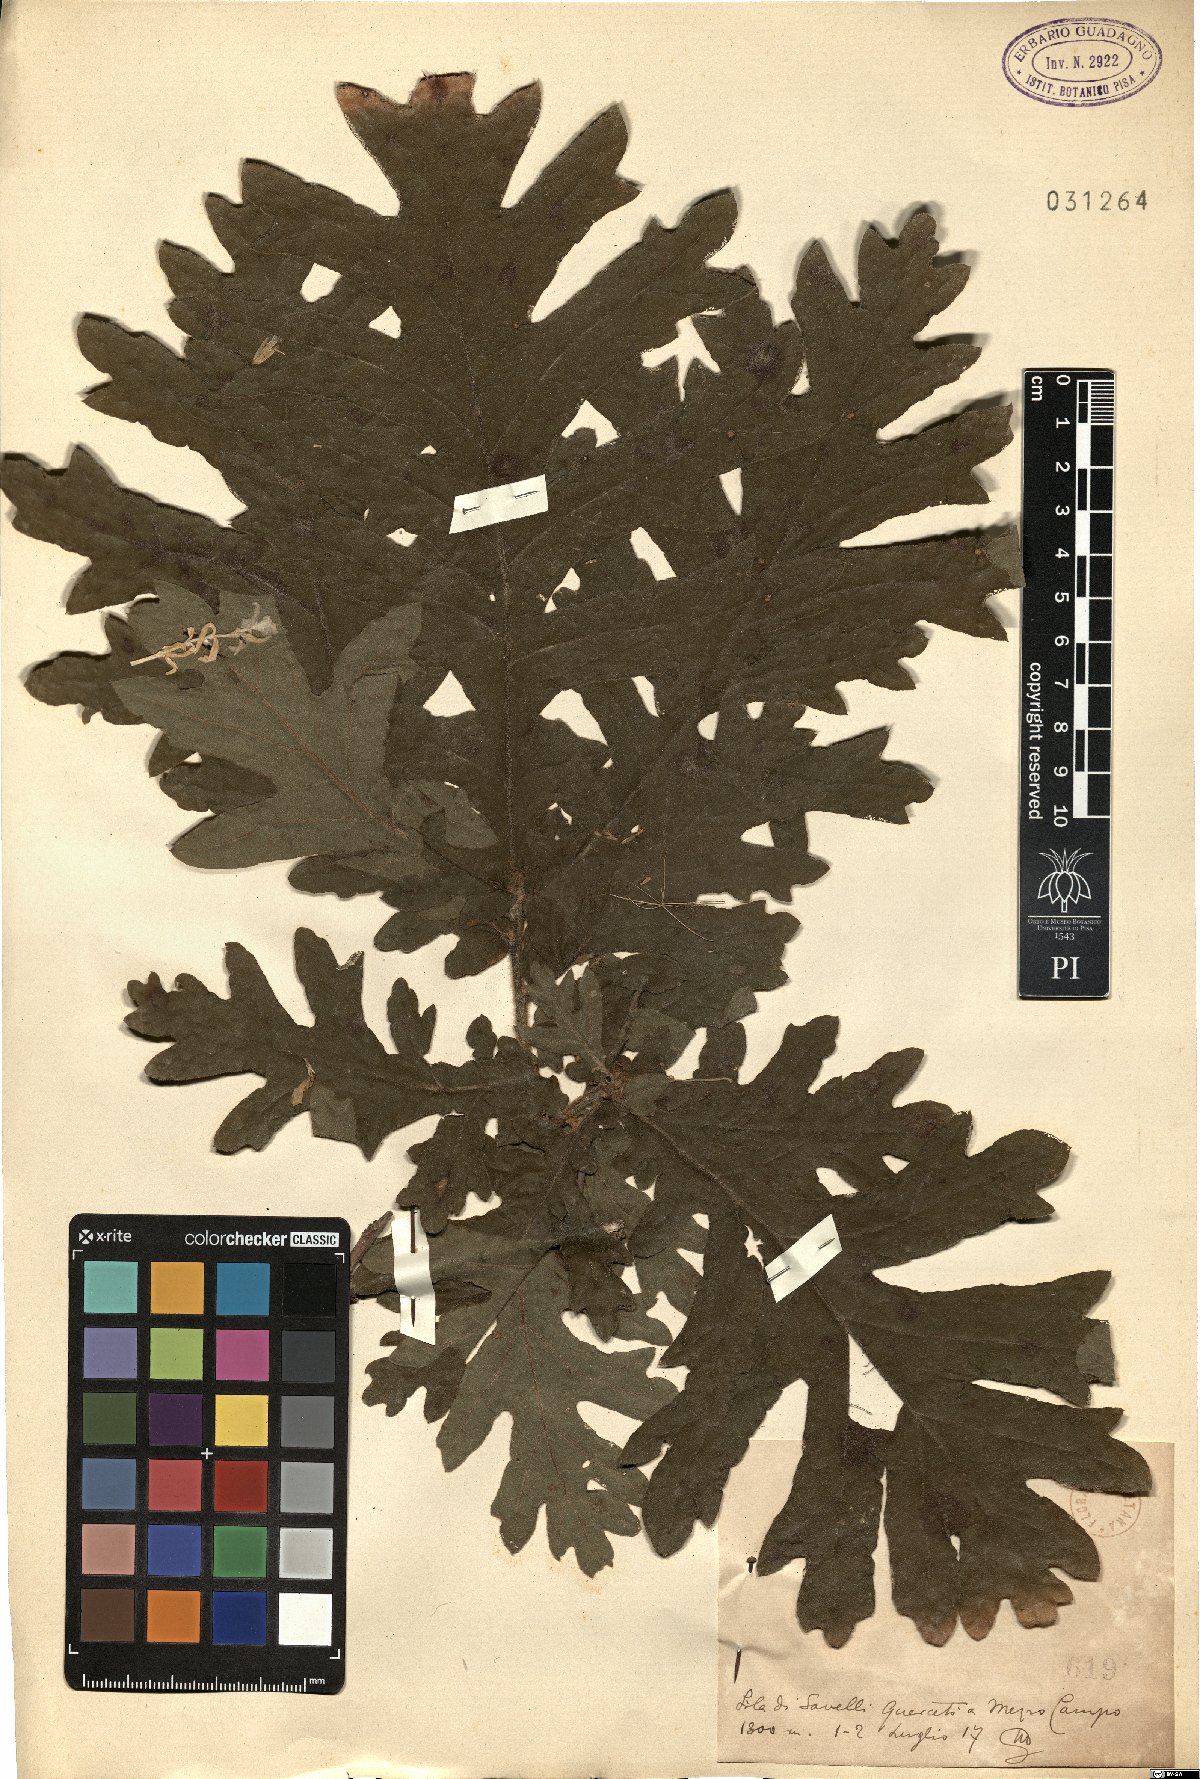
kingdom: Plantae
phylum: Tracheophyta
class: Magnoliopsida
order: Fagales
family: Fagaceae
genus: Quercus
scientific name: Quercus
